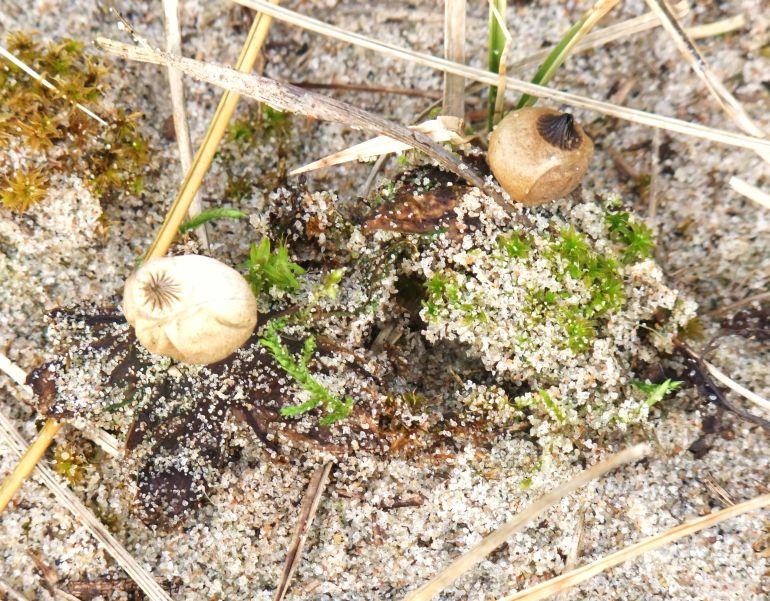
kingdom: Fungi
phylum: Basidiomycota
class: Agaricomycetes
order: Geastrales
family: Geastraceae
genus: Geastrum
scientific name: Geastrum striatum
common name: dværg-stjernebold
